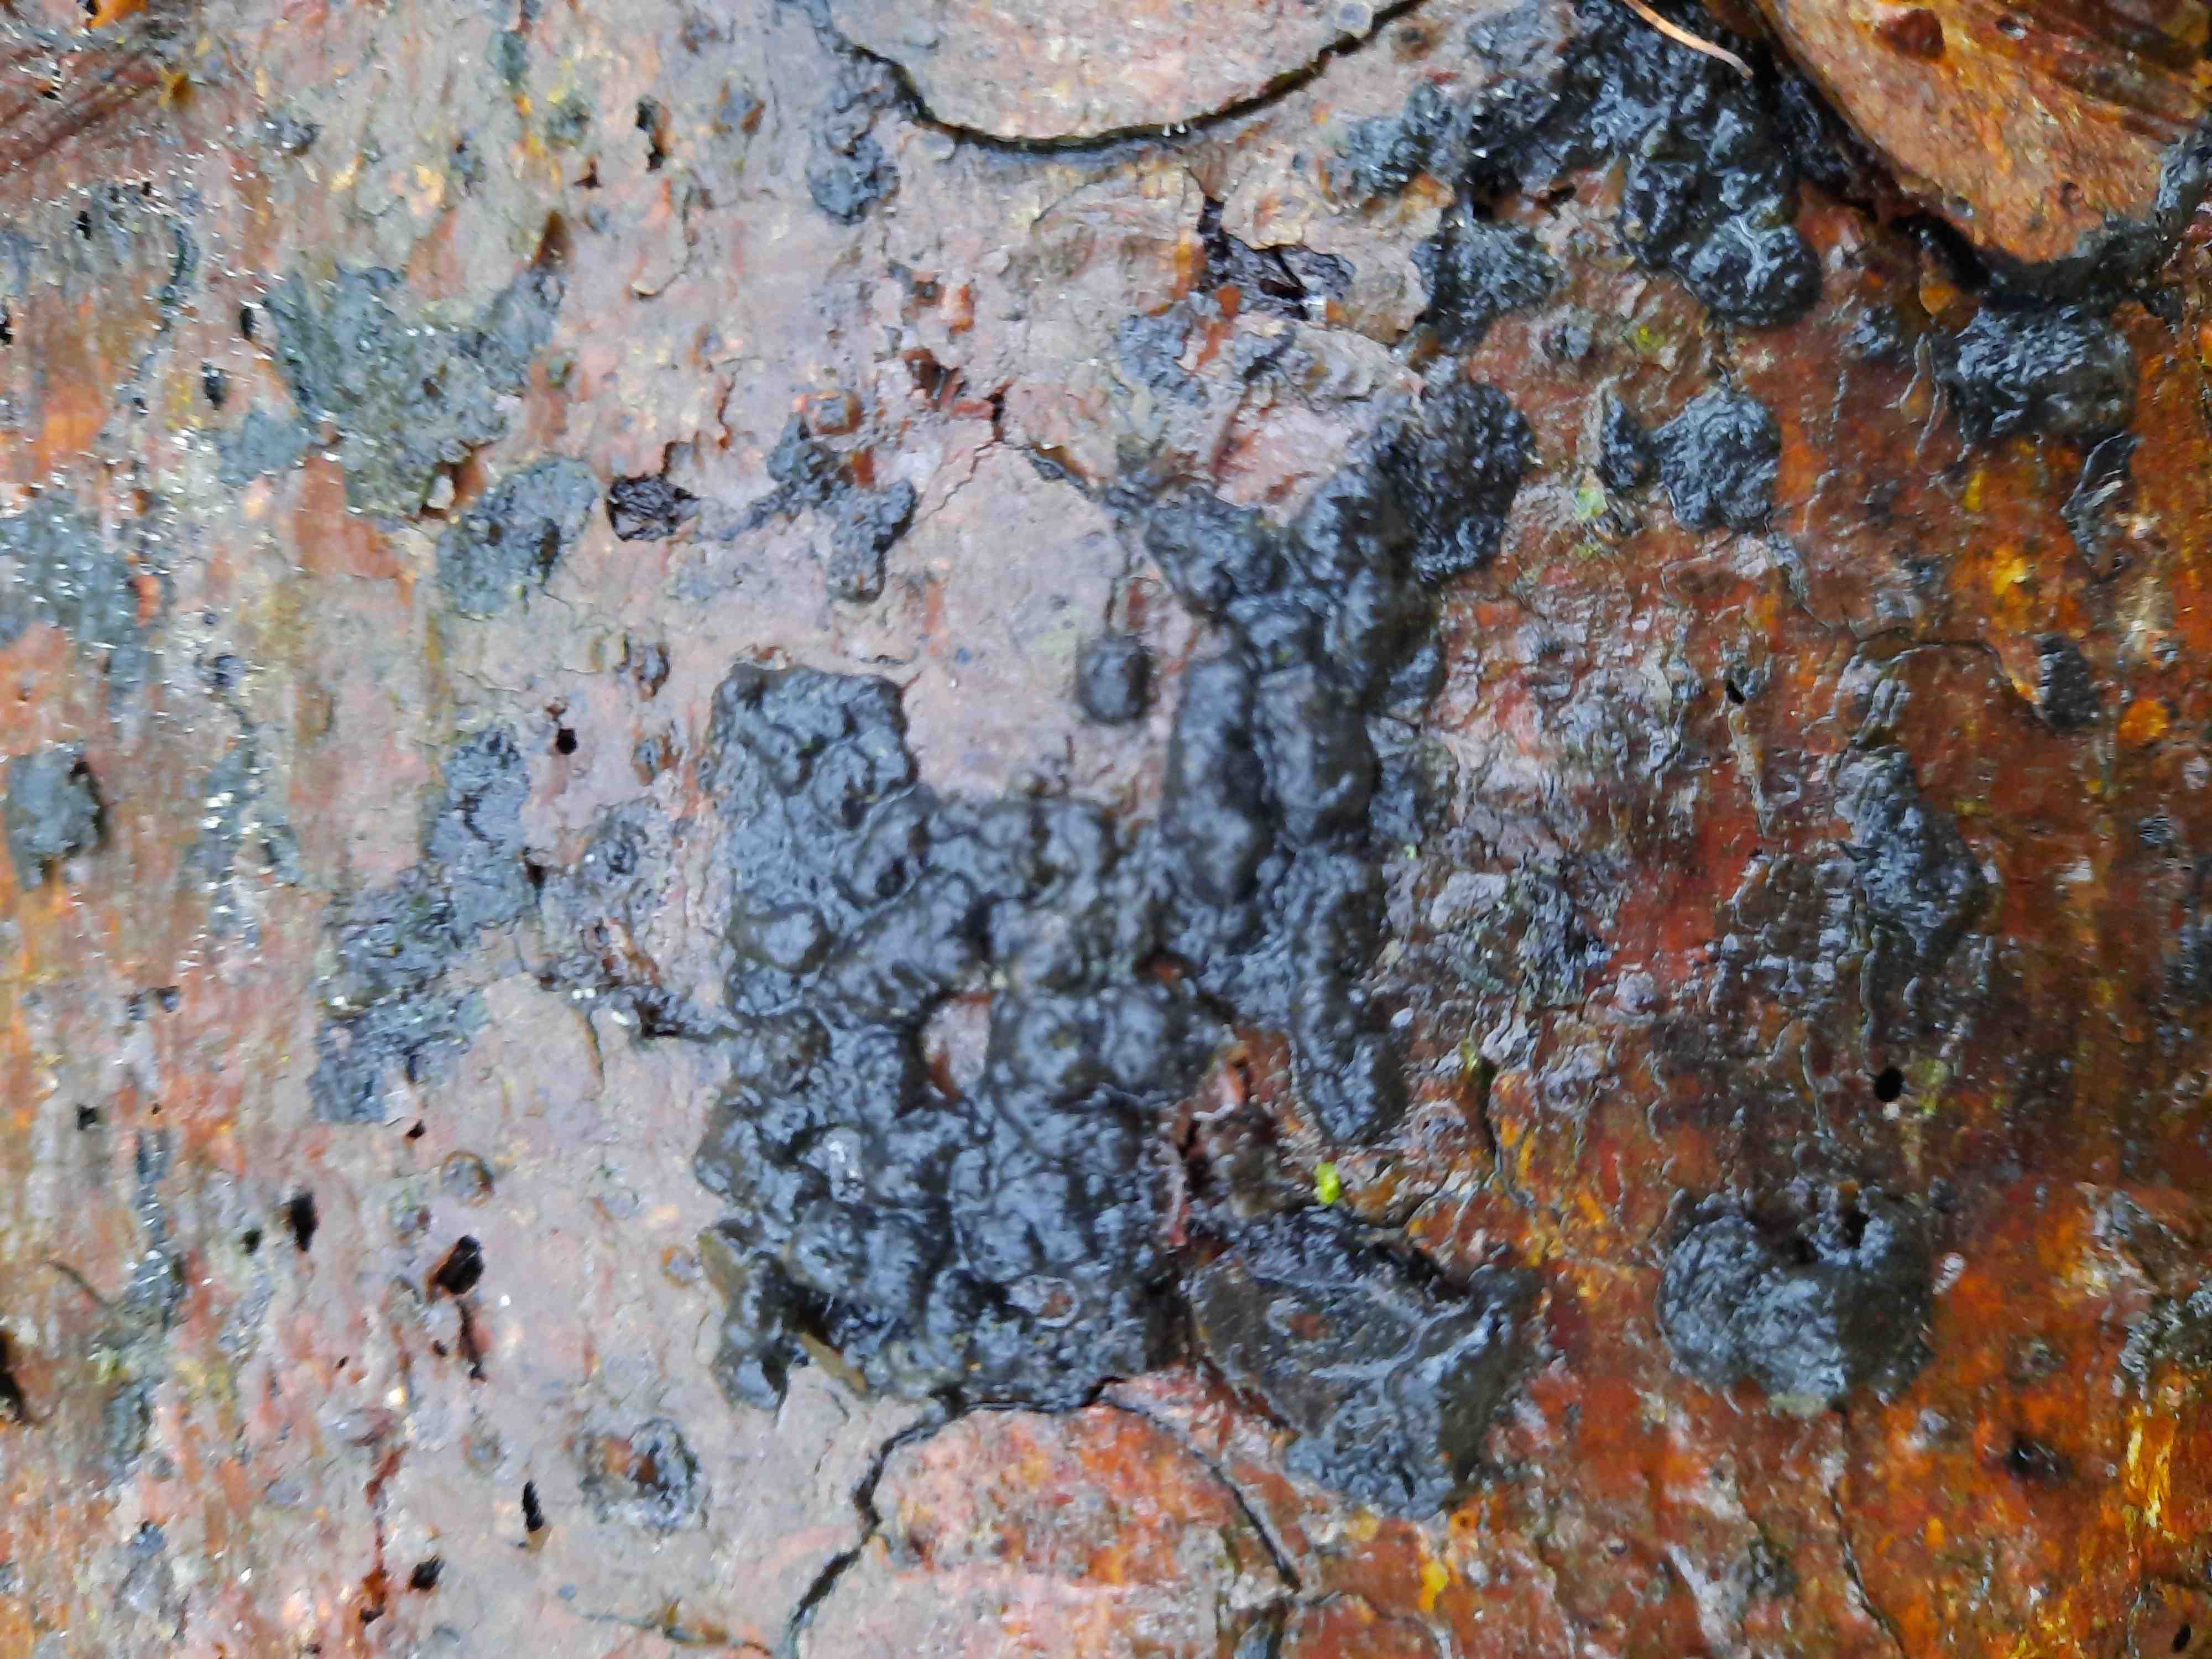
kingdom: Fungi
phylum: Basidiomycota
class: Agaricomycetes
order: Auriculariales
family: Auriculariaceae
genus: Exidia
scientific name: Exidia pithya
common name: gran-bævretop
